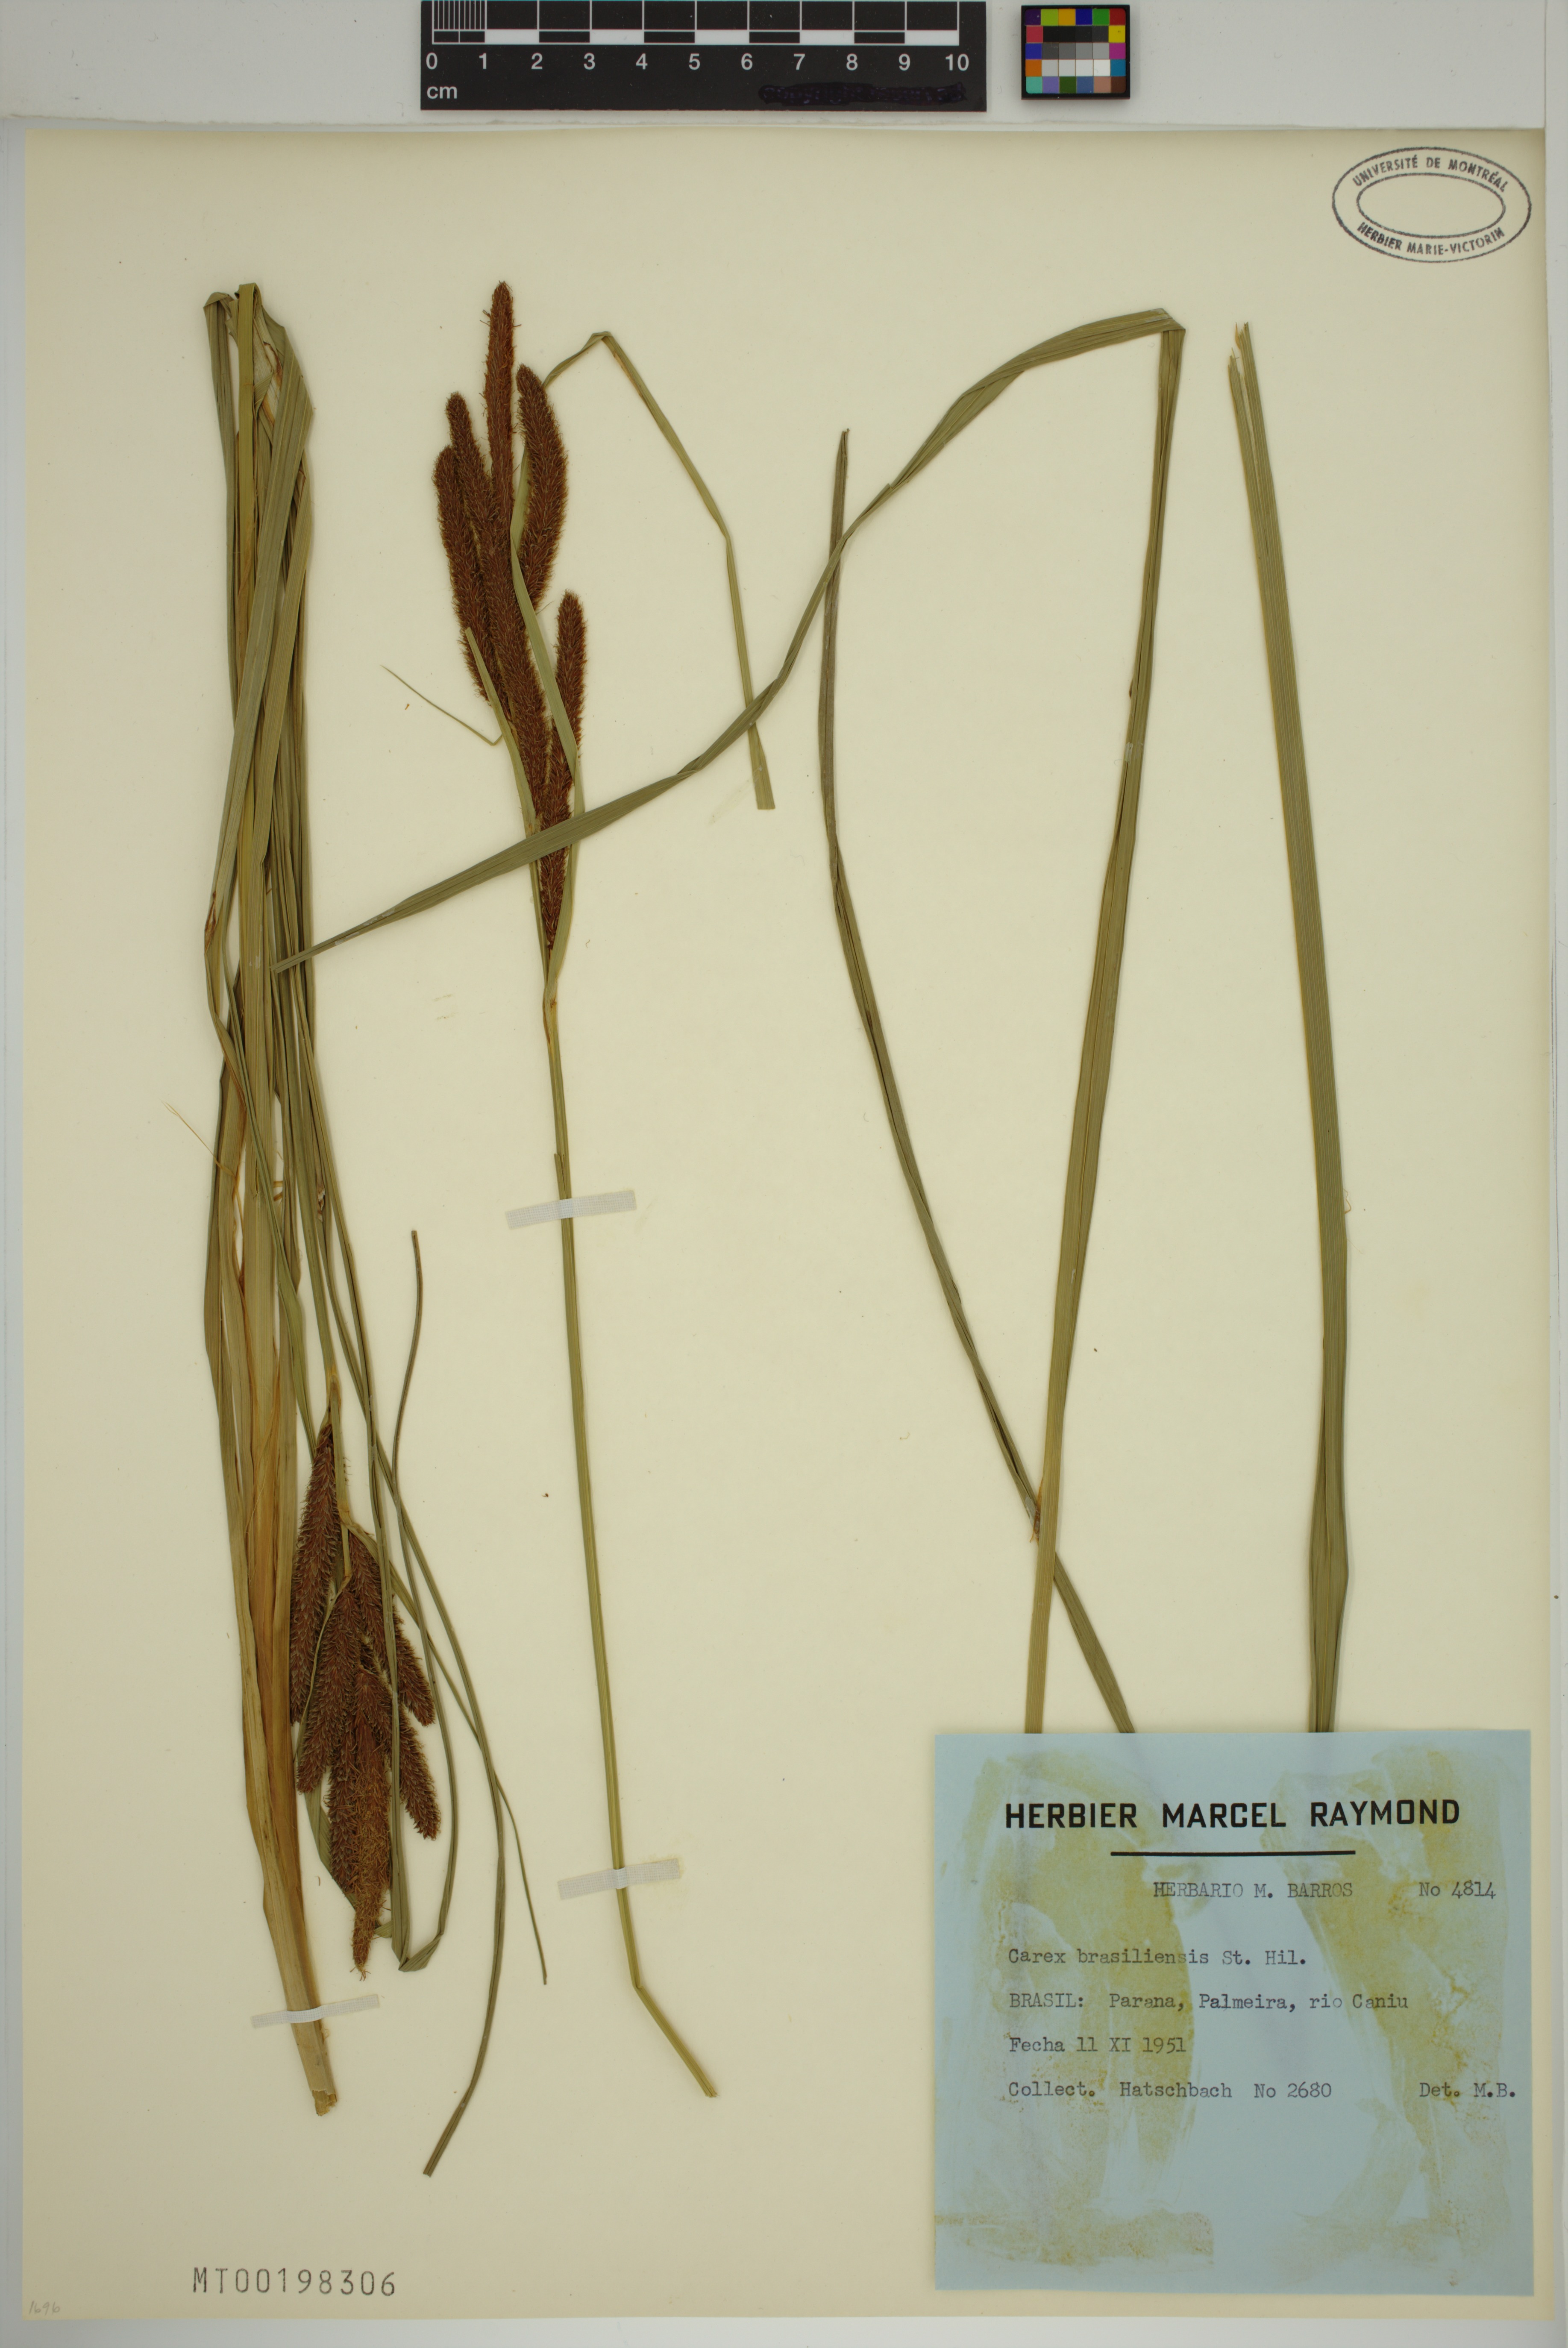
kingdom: Plantae
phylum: Tracheophyta
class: Liliopsida
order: Poales
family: Cyperaceae
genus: Carex
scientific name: Carex brasiliensis
